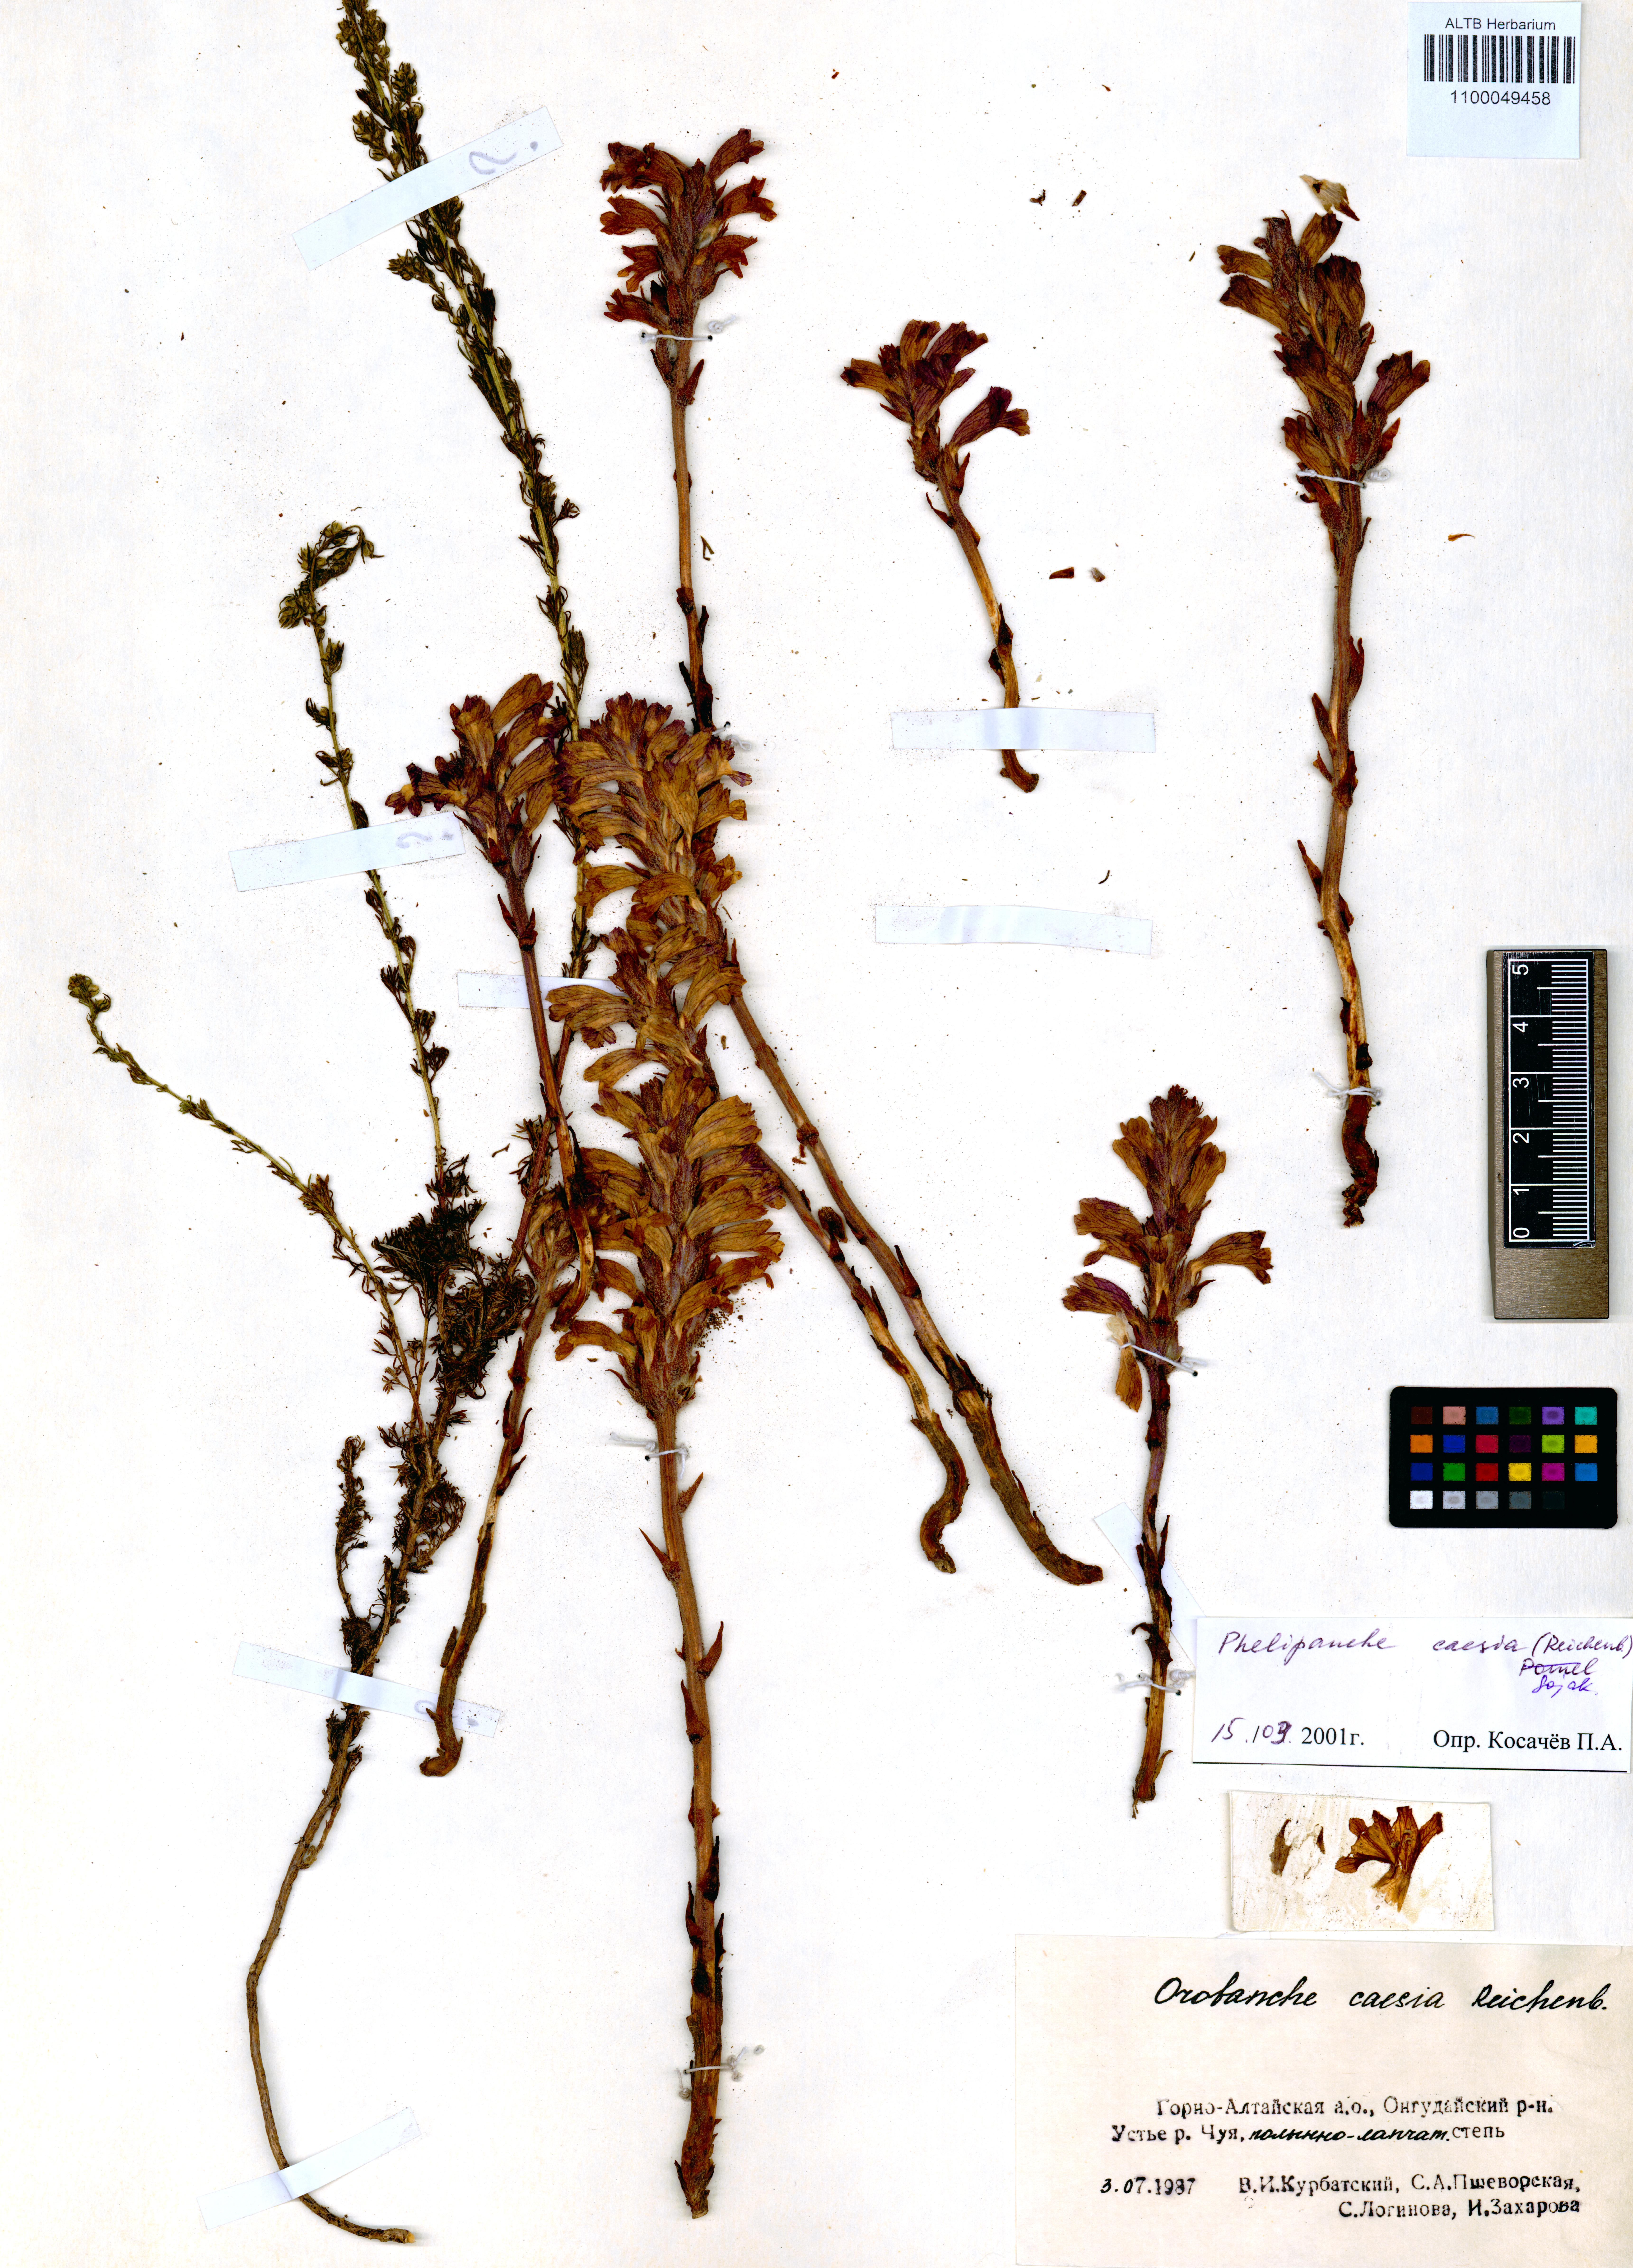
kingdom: Plantae
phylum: Tracheophyta
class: Magnoliopsida
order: Lamiales
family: Orobanchaceae
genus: Phelipanche
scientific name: Phelipanche caesia
